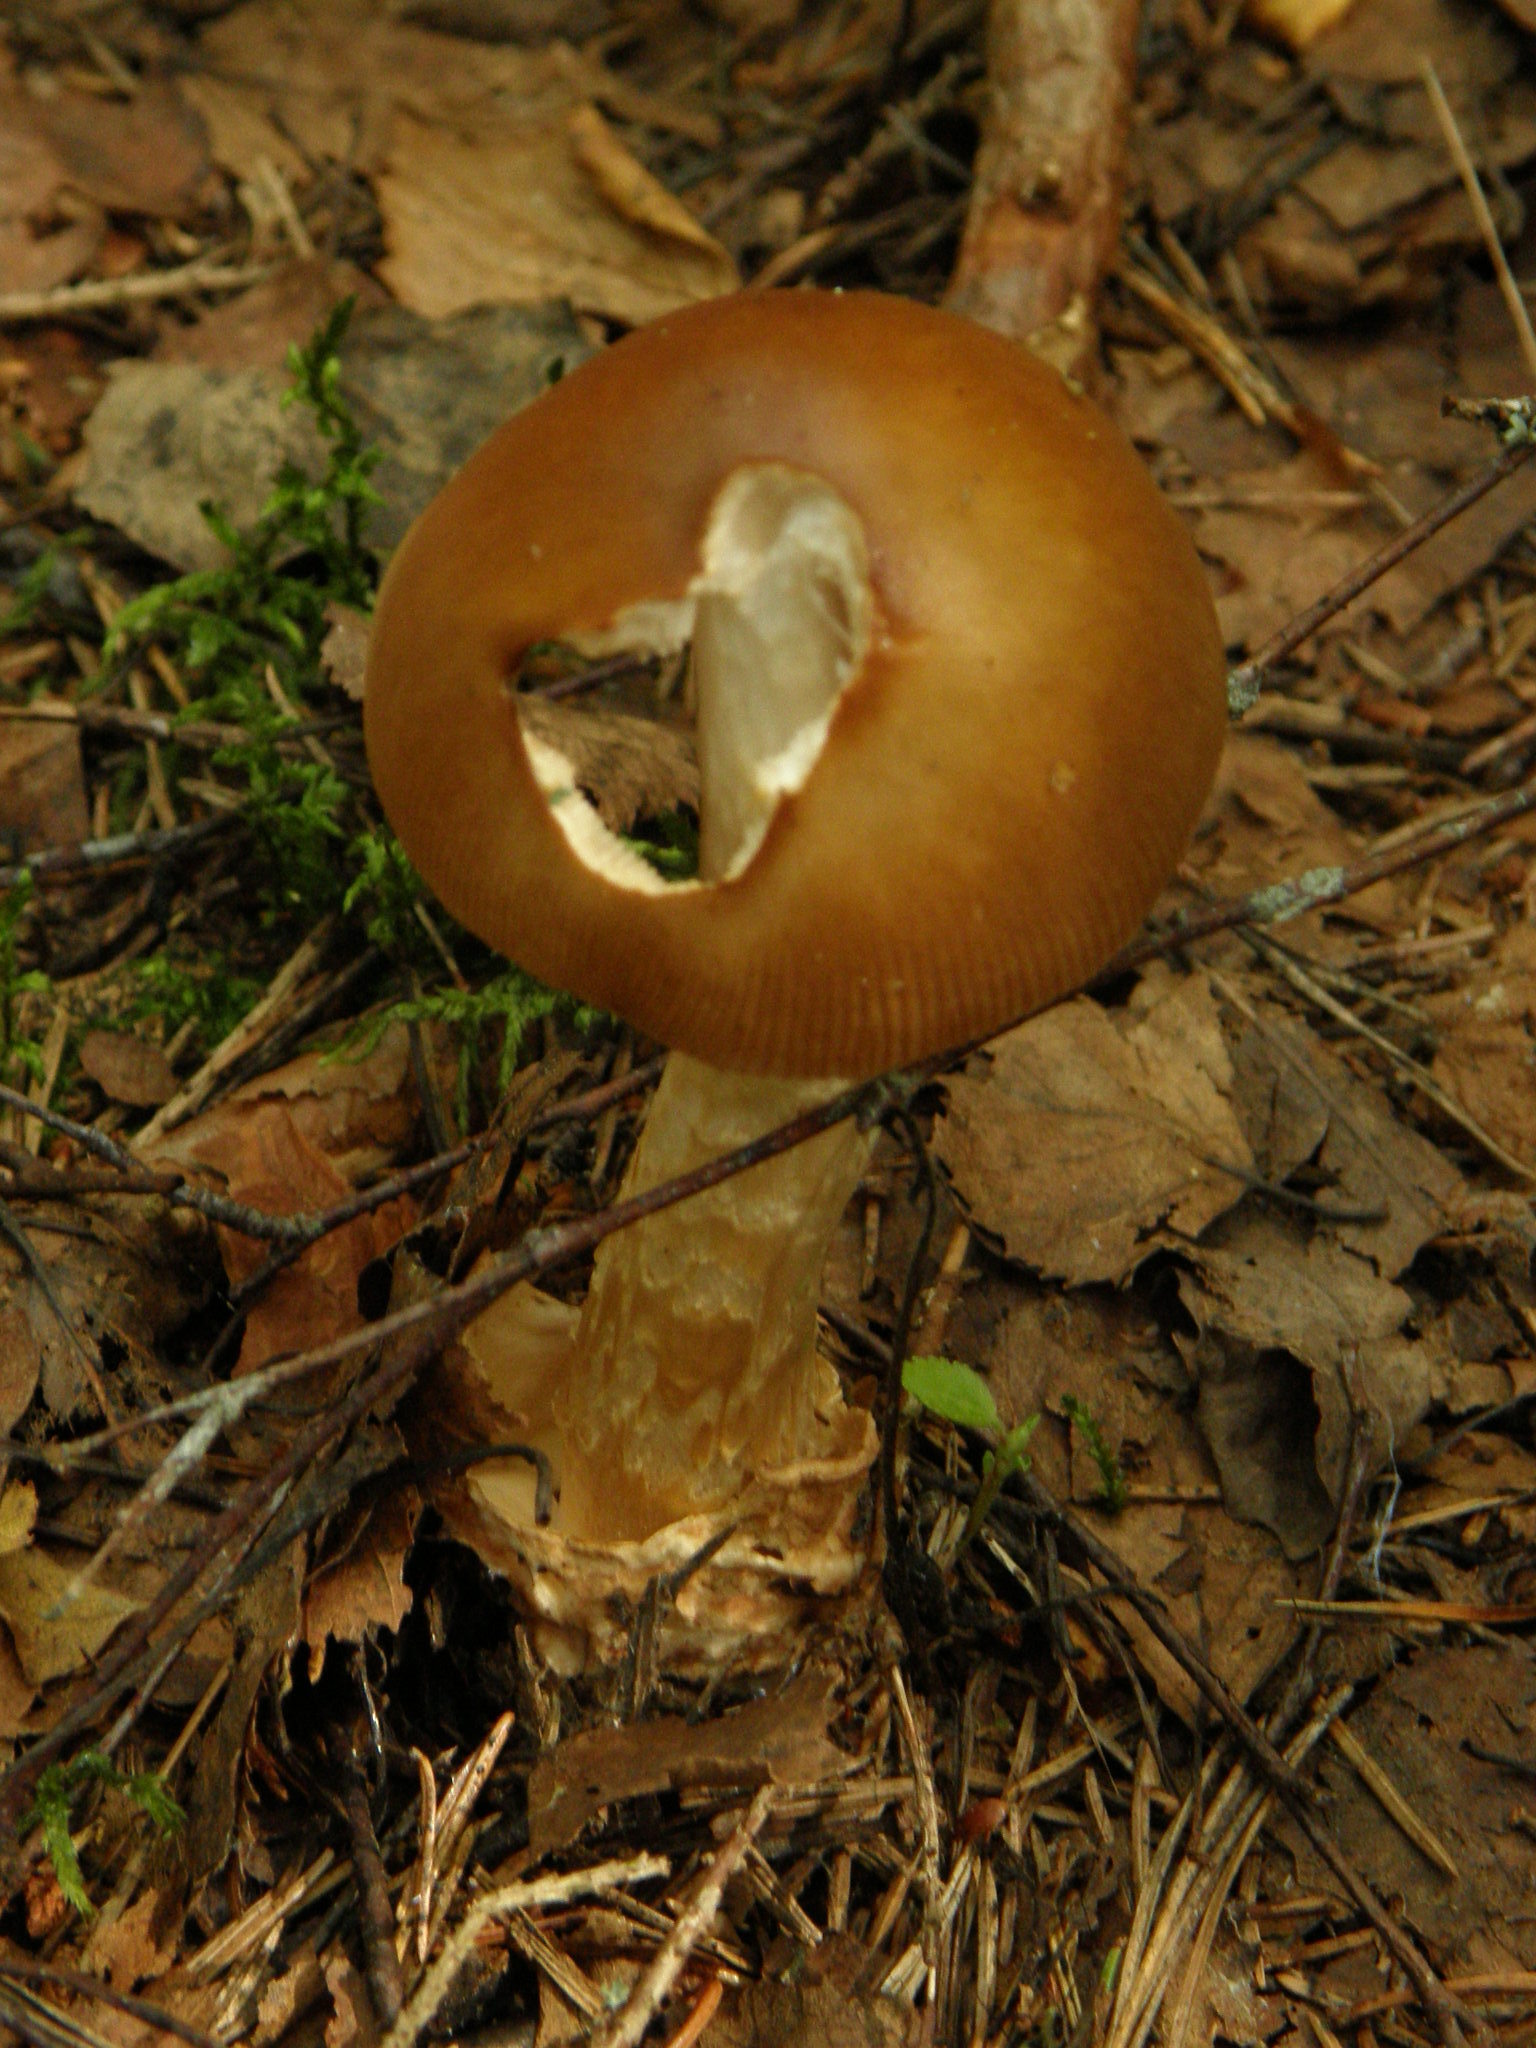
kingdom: Fungi
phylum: Basidiomycota
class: Agaricomycetes
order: Agaricales
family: Amanitaceae
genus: Amanita
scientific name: Amanita fulva
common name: Tawny grisette
